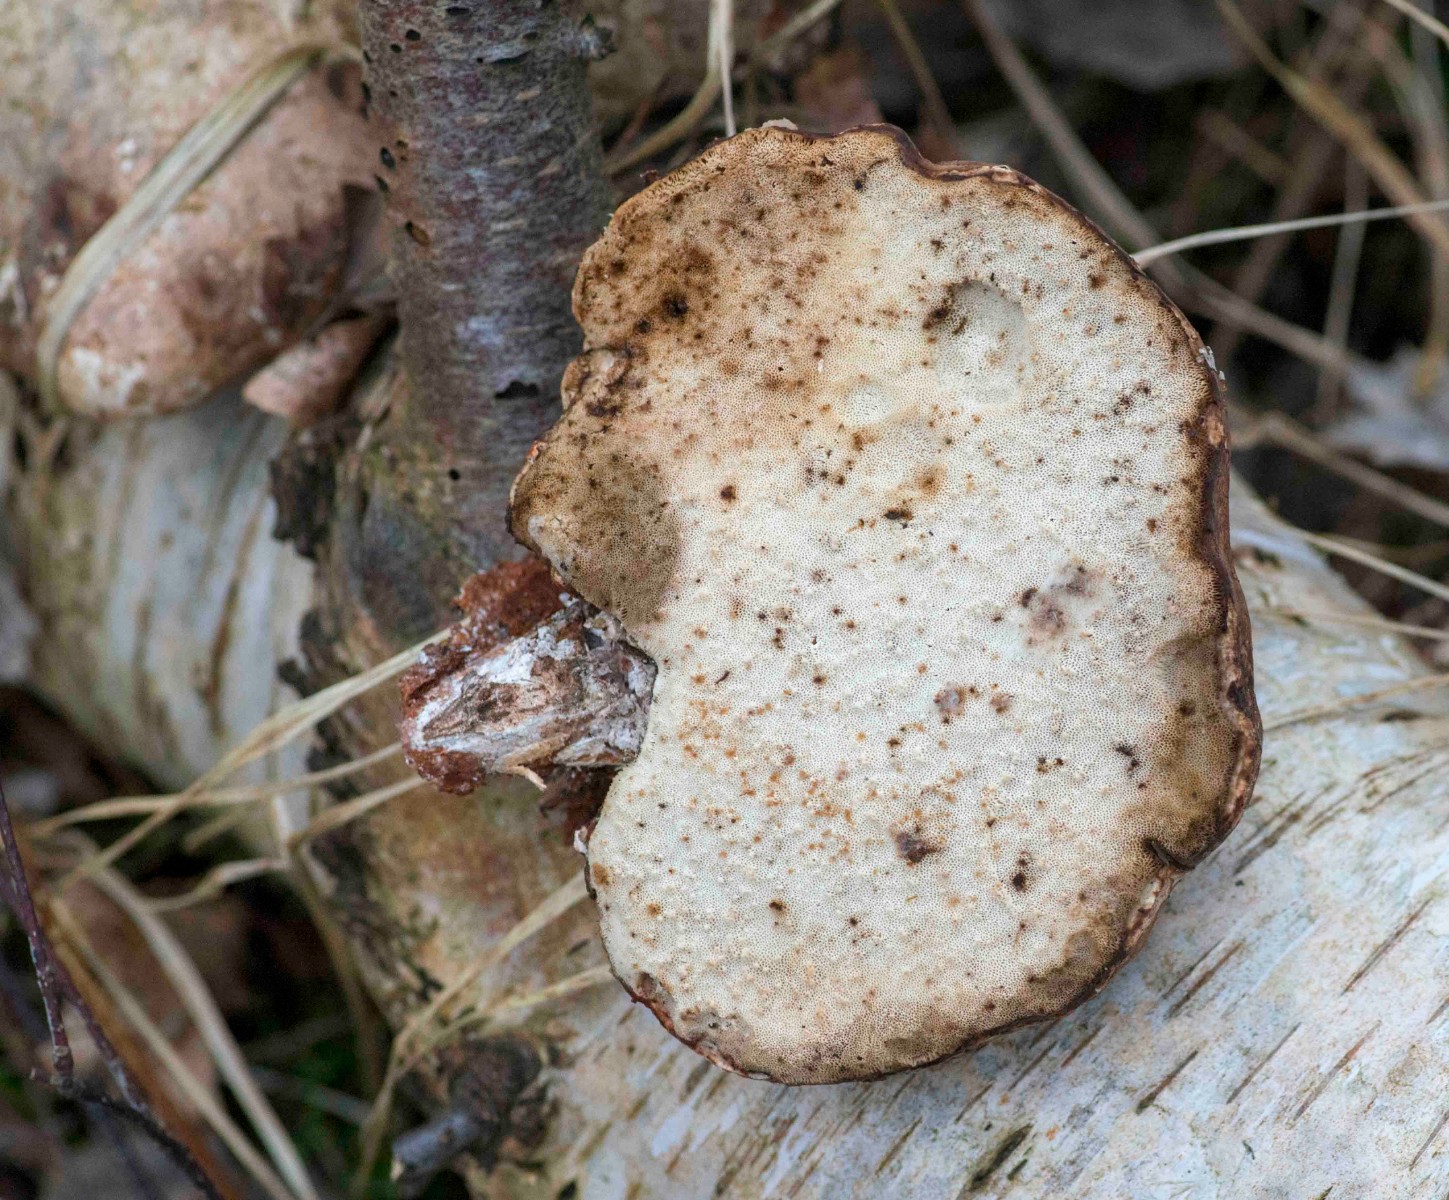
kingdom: Fungi
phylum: Basidiomycota
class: Agaricomycetes
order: Polyporales
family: Fomitopsidaceae
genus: Fomitopsis
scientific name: Fomitopsis betulina
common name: birkeporesvamp
